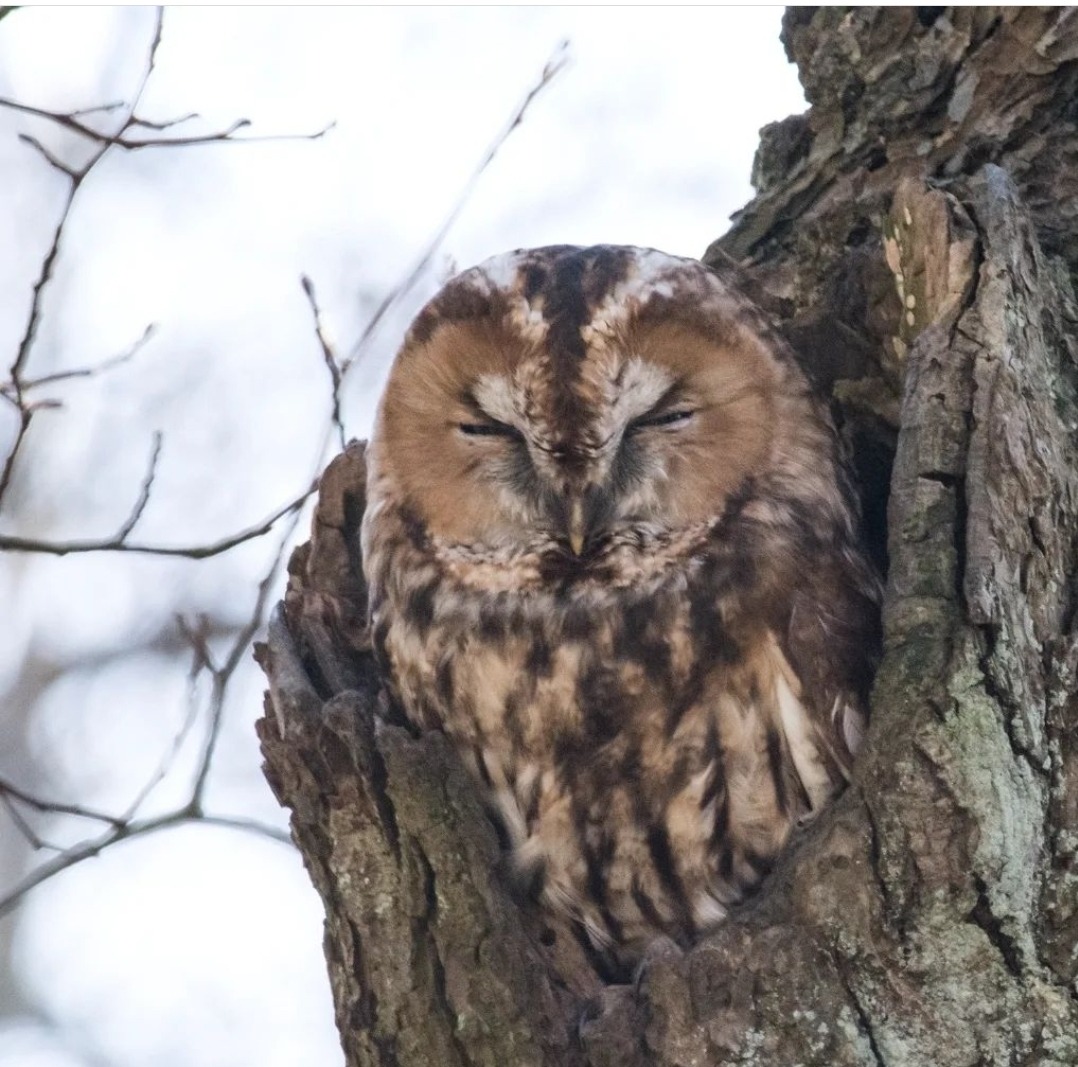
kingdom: Animalia
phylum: Chordata
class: Aves
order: Strigiformes
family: Strigidae
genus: Strix
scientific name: Strix aluco
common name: Natugle
